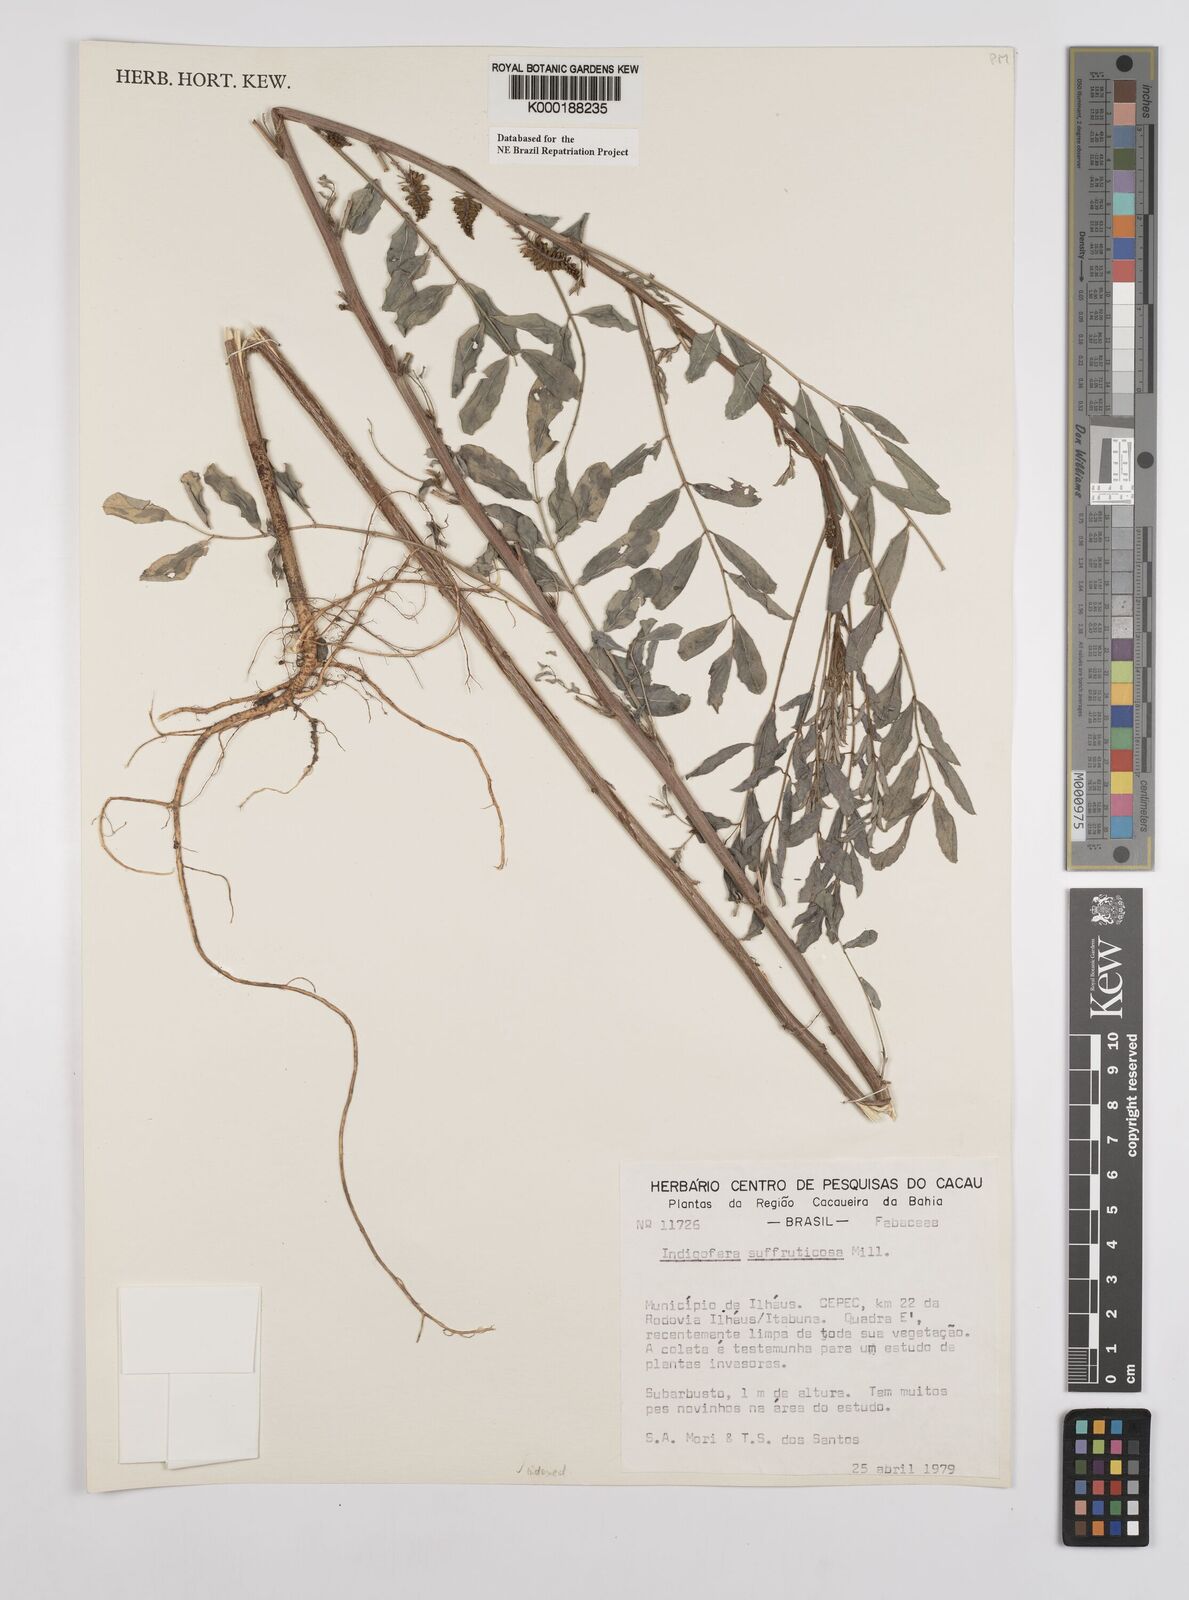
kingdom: Plantae
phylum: Tracheophyta
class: Magnoliopsida
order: Fabales
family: Fabaceae
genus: Indigofera
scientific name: Indigofera suffruticosa
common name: Anil de pasto
